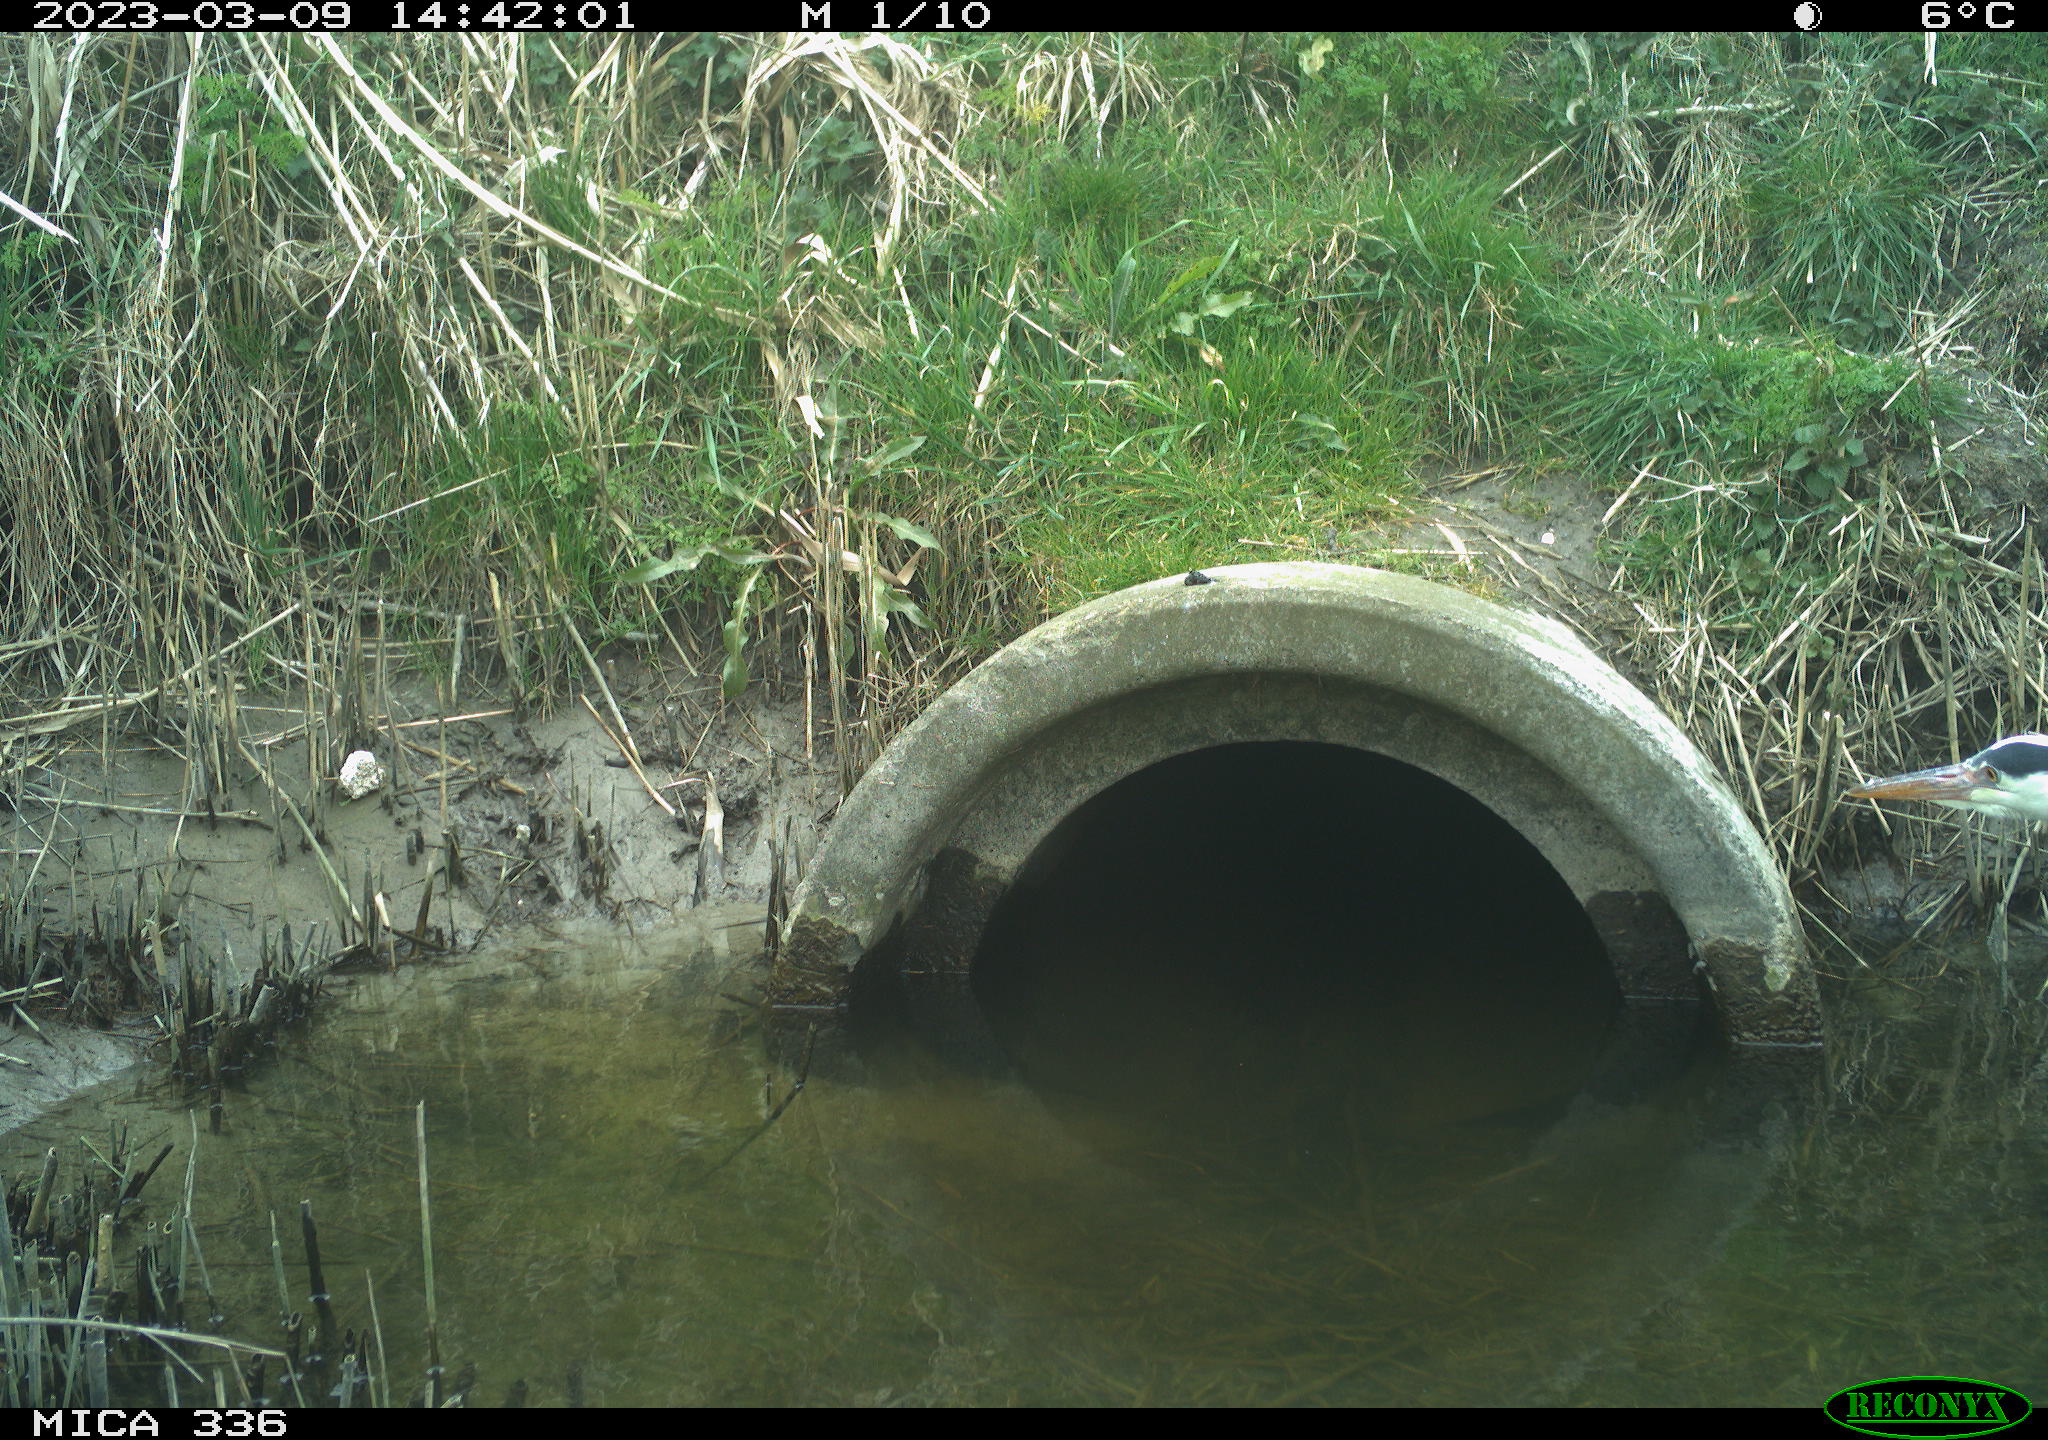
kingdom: Animalia
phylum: Chordata
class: Aves
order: Pelecaniformes
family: Ardeidae
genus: Ardea
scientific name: Ardea cinerea
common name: Grey heron
